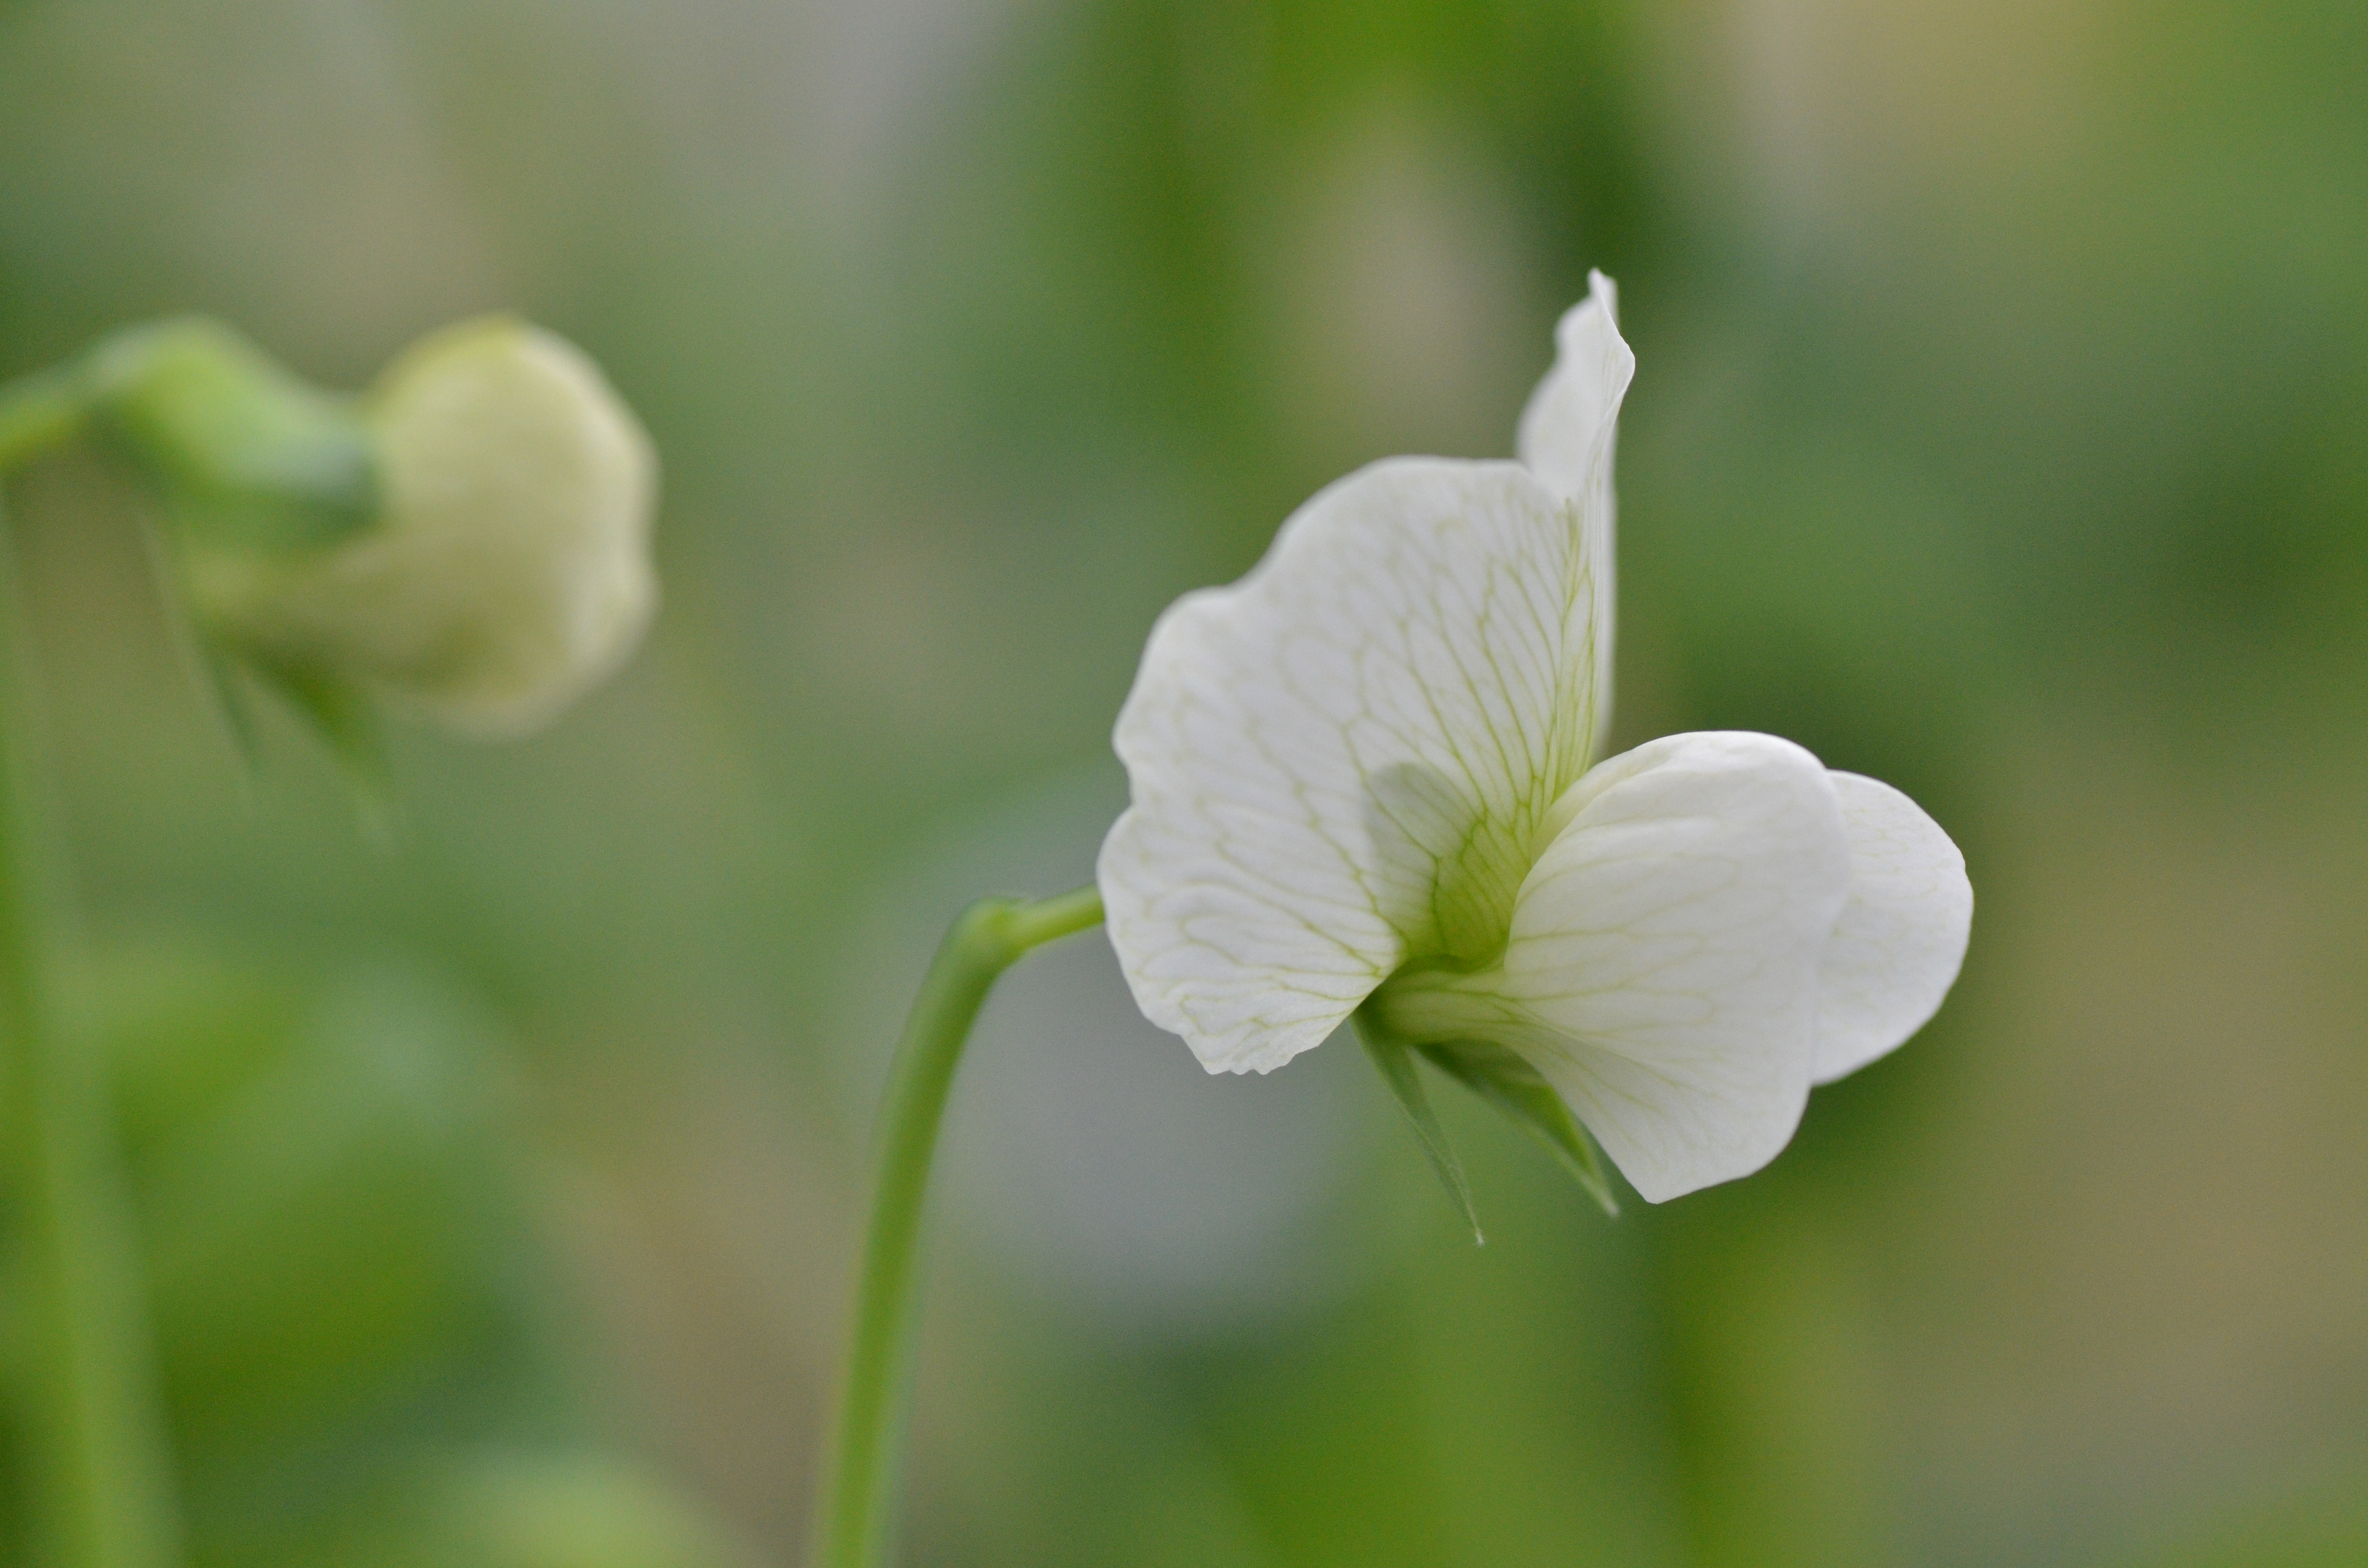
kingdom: Plantae
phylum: Tracheophyta
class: Magnoliopsida
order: Fabales
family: Fabaceae
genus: Lathyrus
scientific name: Lathyrus oleraceus
